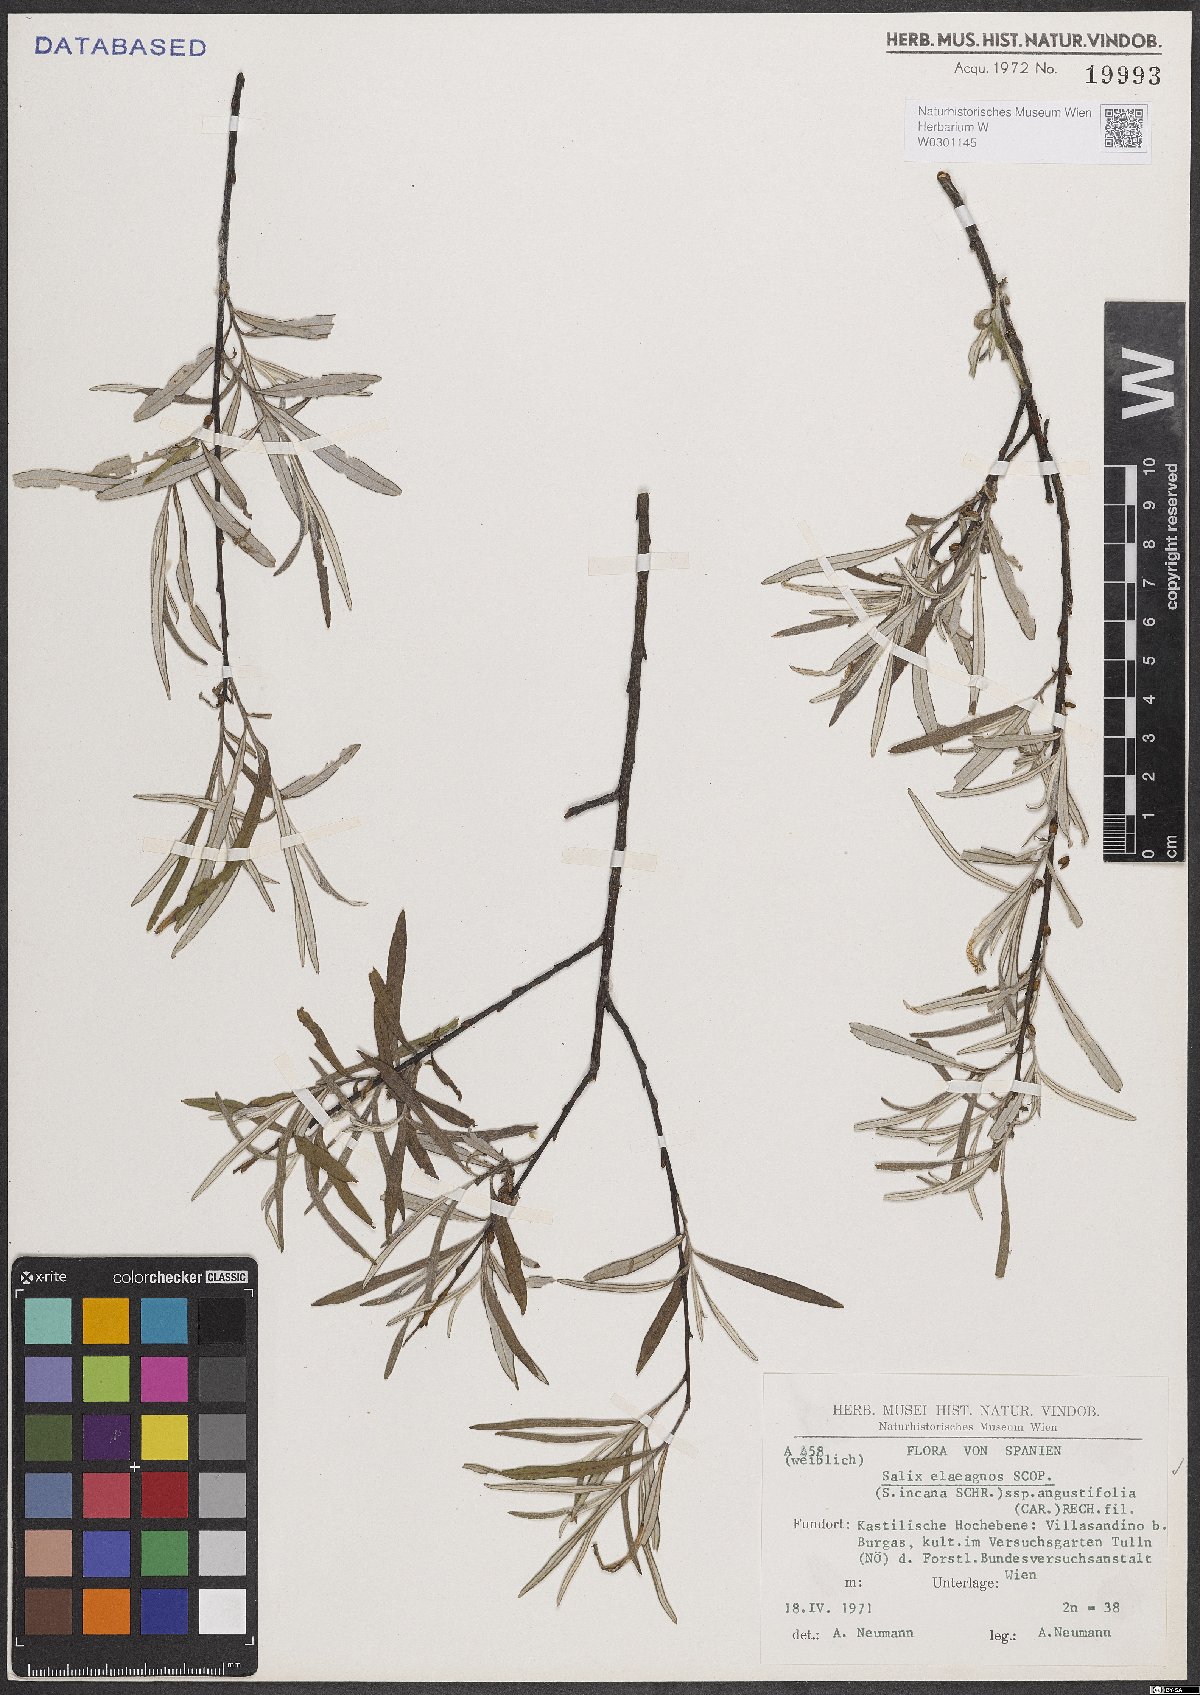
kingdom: Plantae
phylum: Tracheophyta
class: Magnoliopsida
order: Malpighiales
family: Salicaceae
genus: Salix
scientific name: Salix eleagnos
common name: Elaeagnus willow
